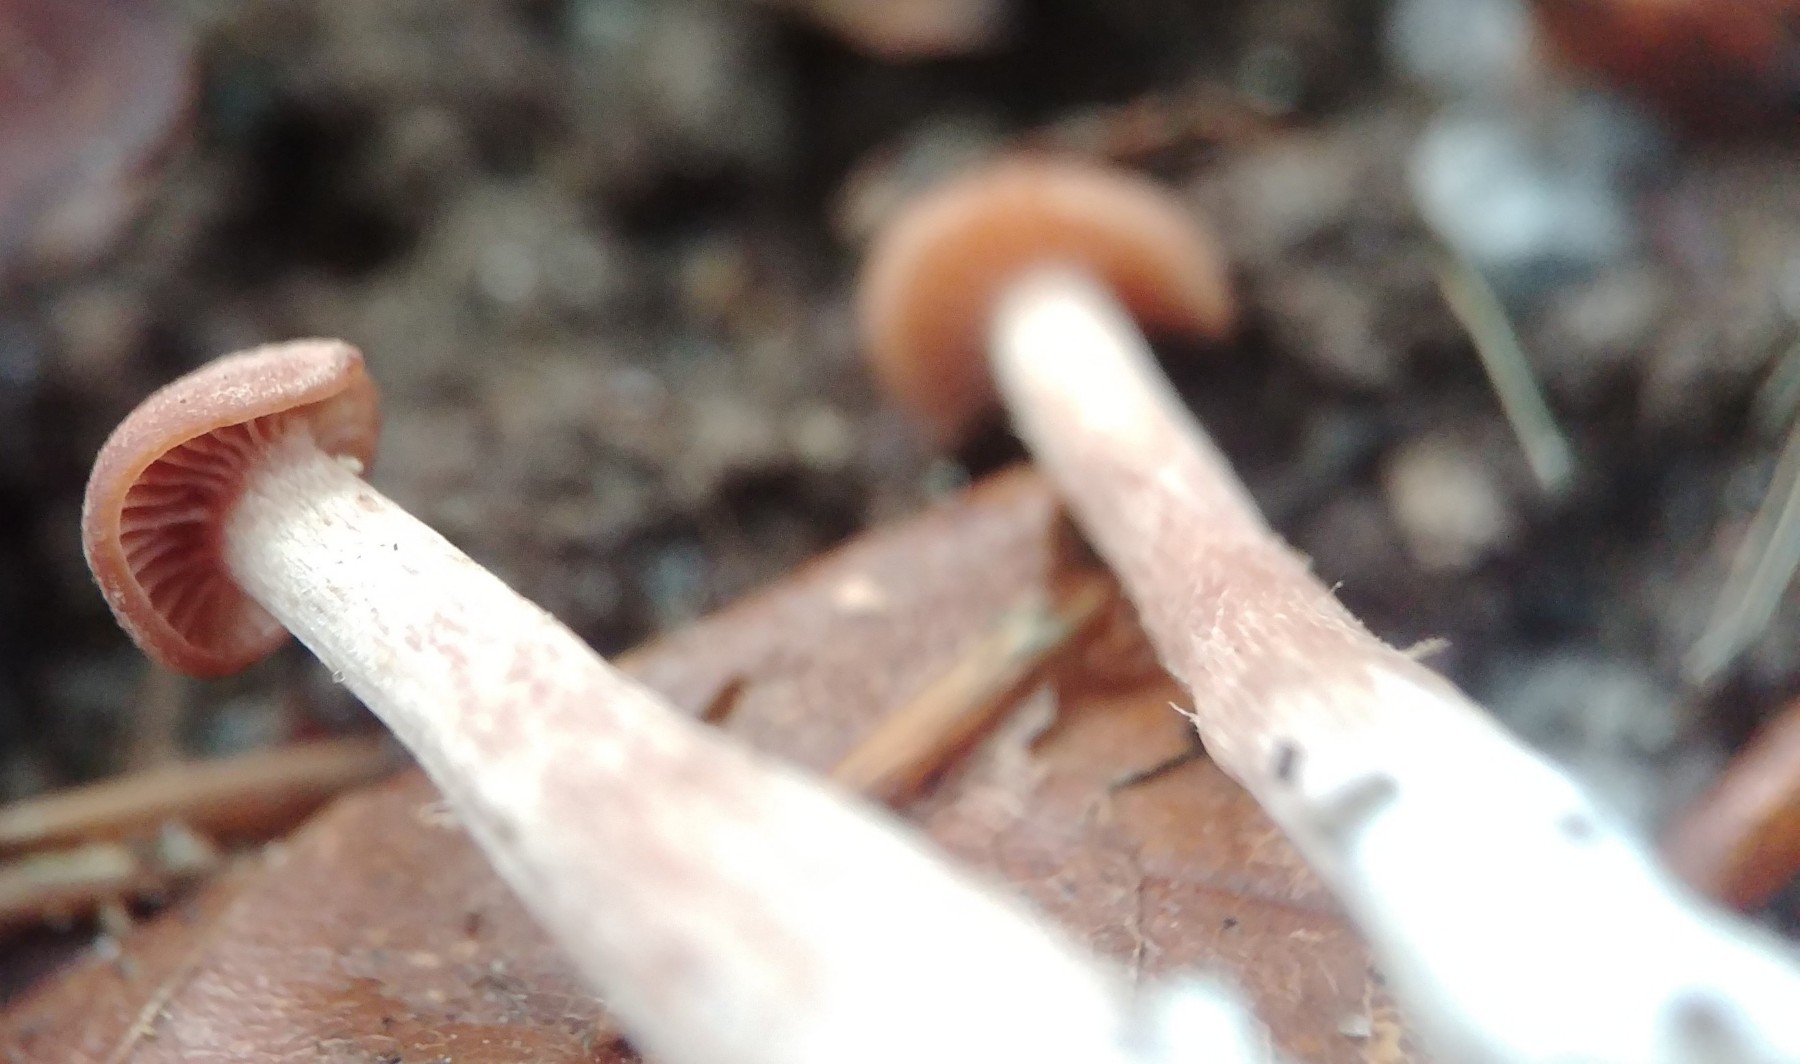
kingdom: Fungi
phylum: Basidiomycota
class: Agaricomycetes
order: Agaricales
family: Hydnangiaceae
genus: Laccaria
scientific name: Laccaria laccata
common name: rød ametysthat
